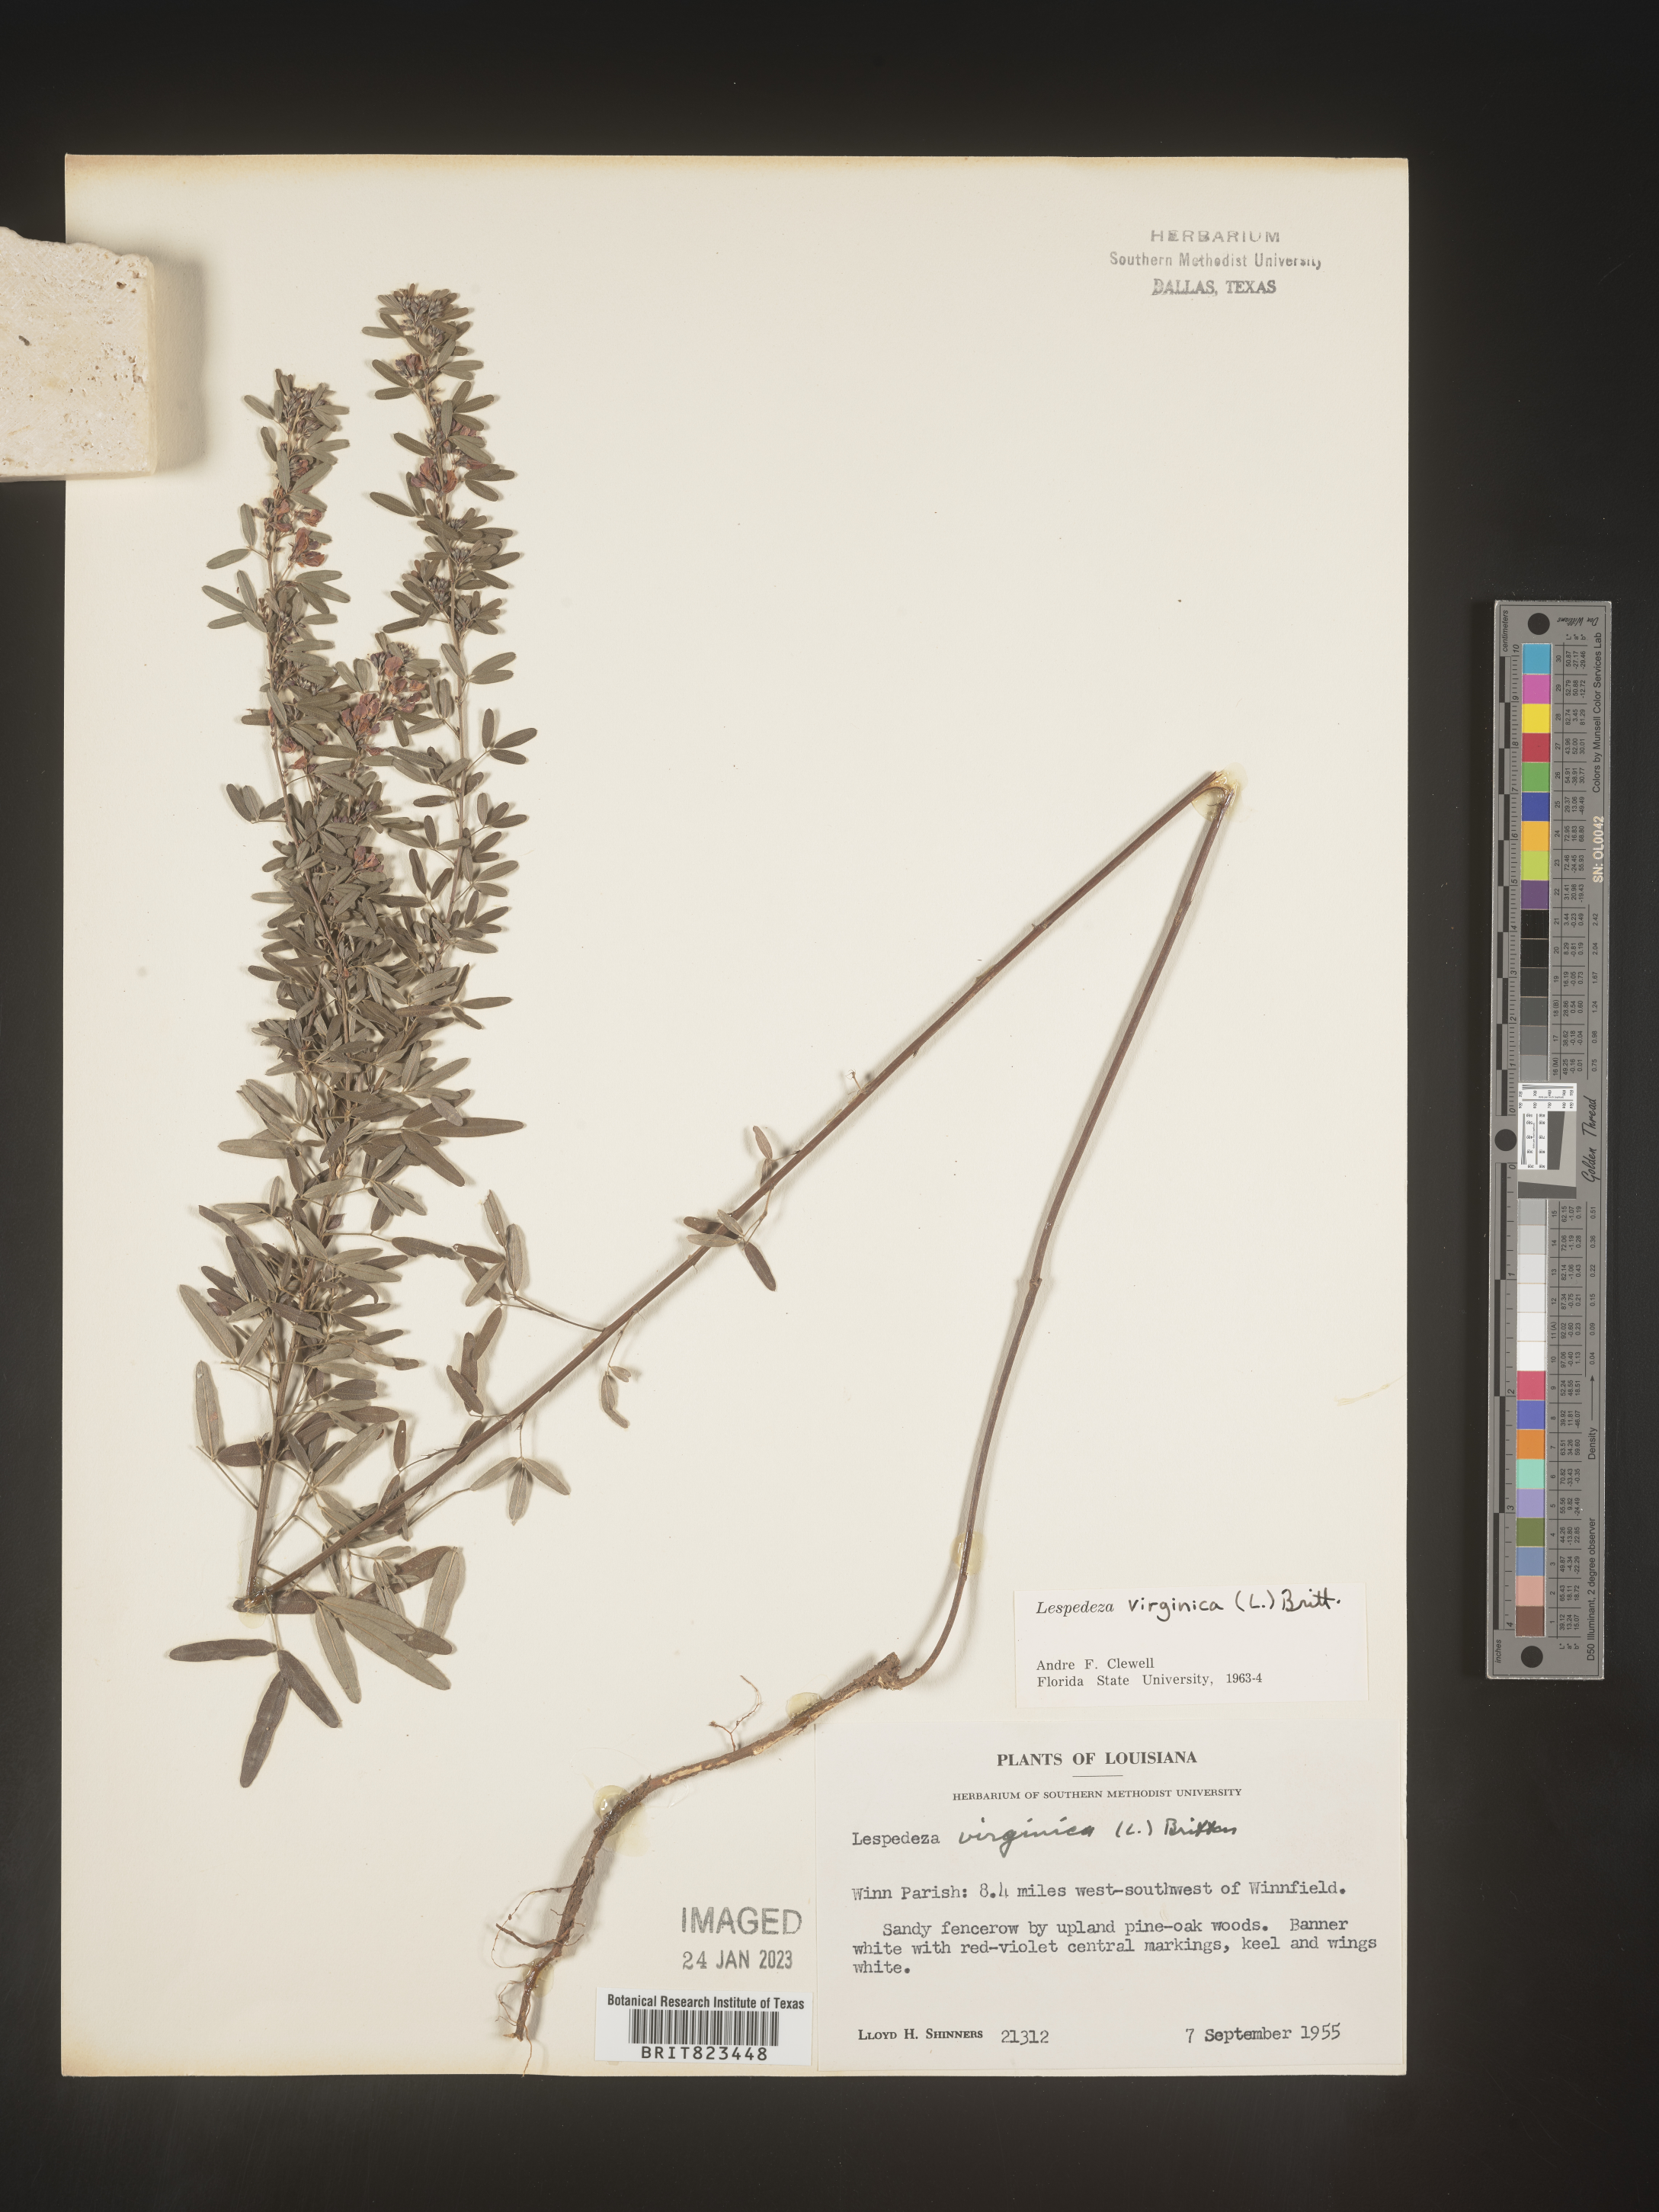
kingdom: Plantae
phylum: Tracheophyta
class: Magnoliopsida
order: Fabales
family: Fabaceae
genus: Lespedeza
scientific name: Lespedeza virginica
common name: Slender bush-clover
